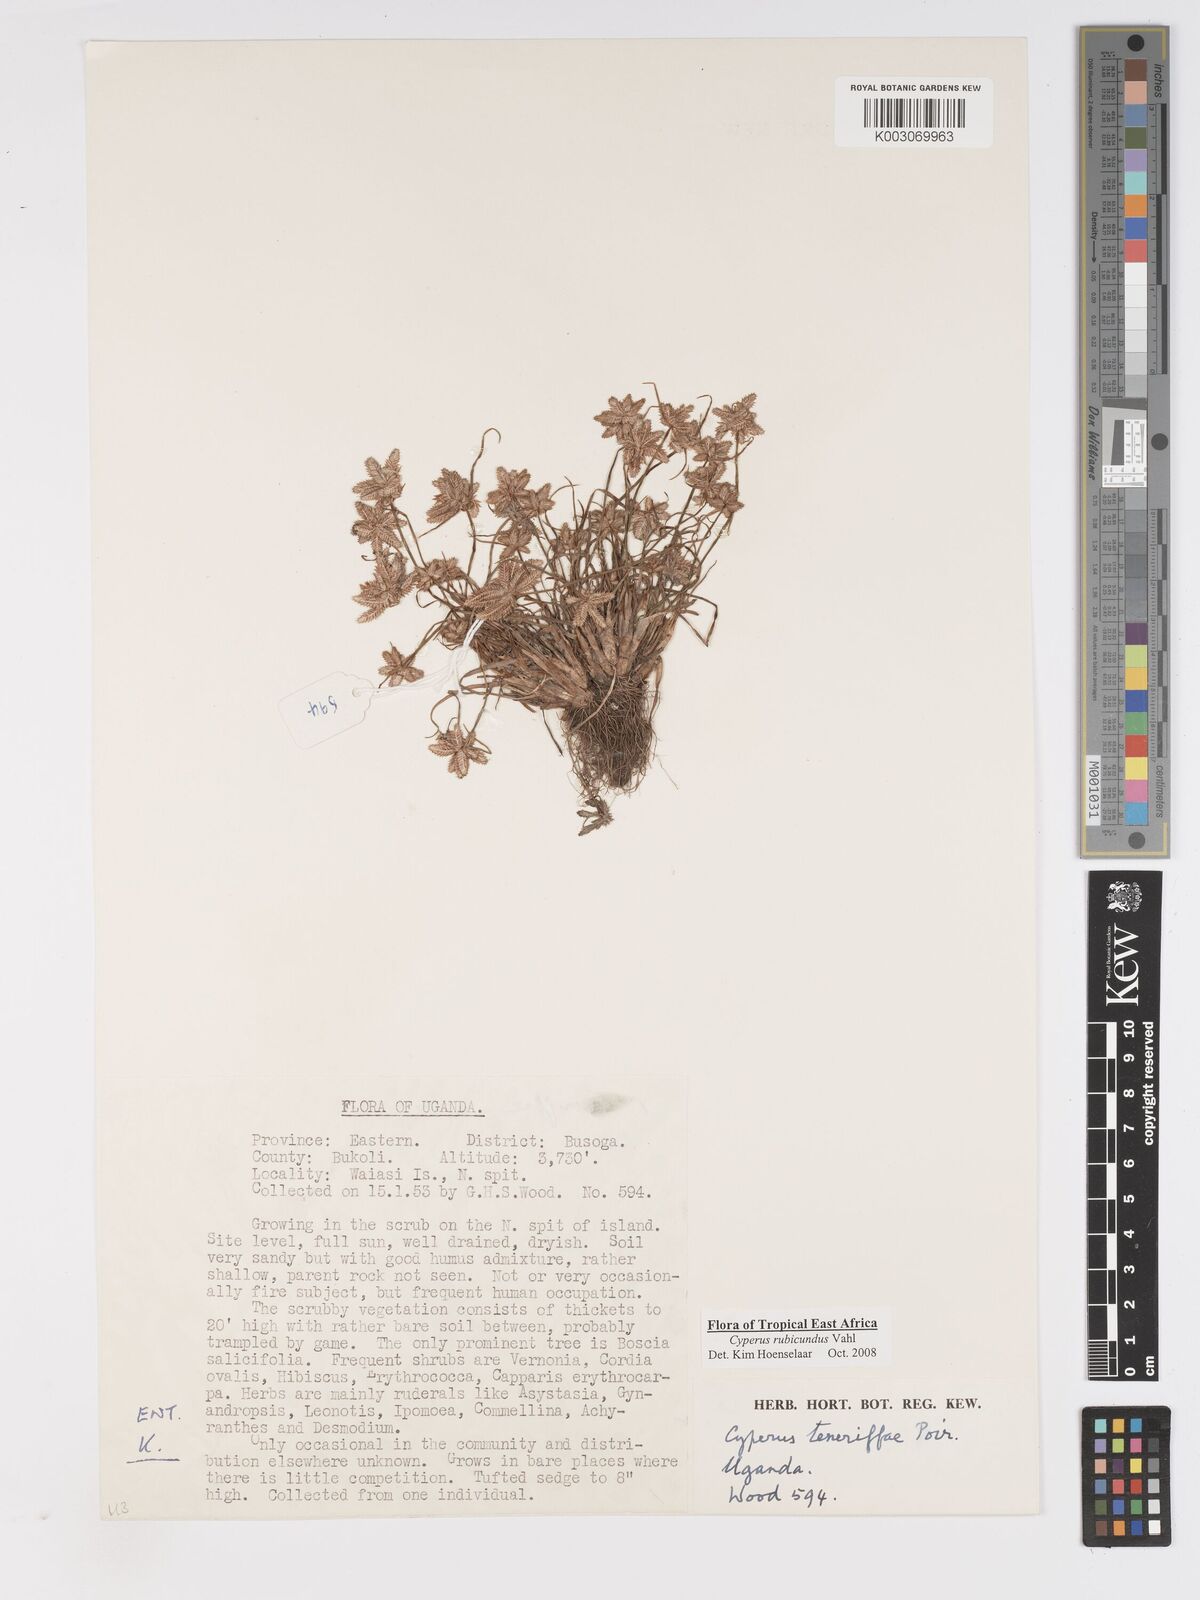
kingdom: Plantae
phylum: Tracheophyta
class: Liliopsida
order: Poales
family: Cyperaceae
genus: Cyperus
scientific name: Cyperus rubicundus
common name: Coco-grass
